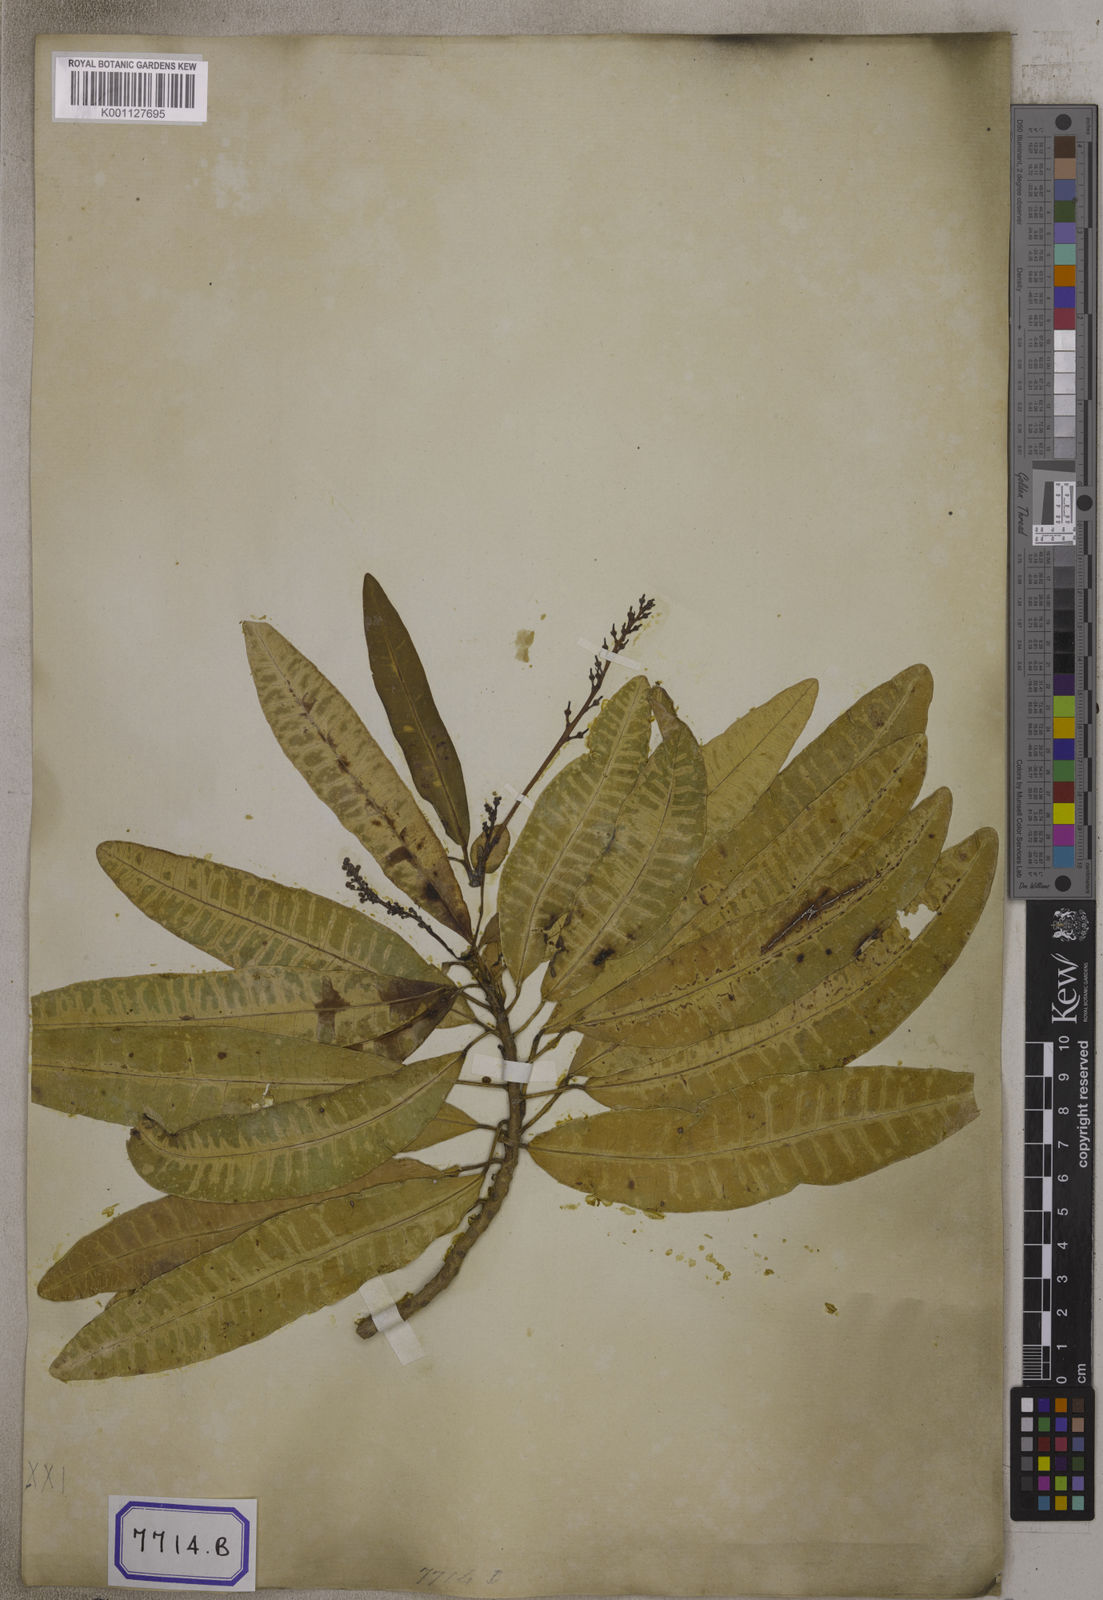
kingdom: Plantae
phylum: Tracheophyta
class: Magnoliopsida
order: Malpighiales
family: Euphorbiaceae
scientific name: Euphorbiaceae
